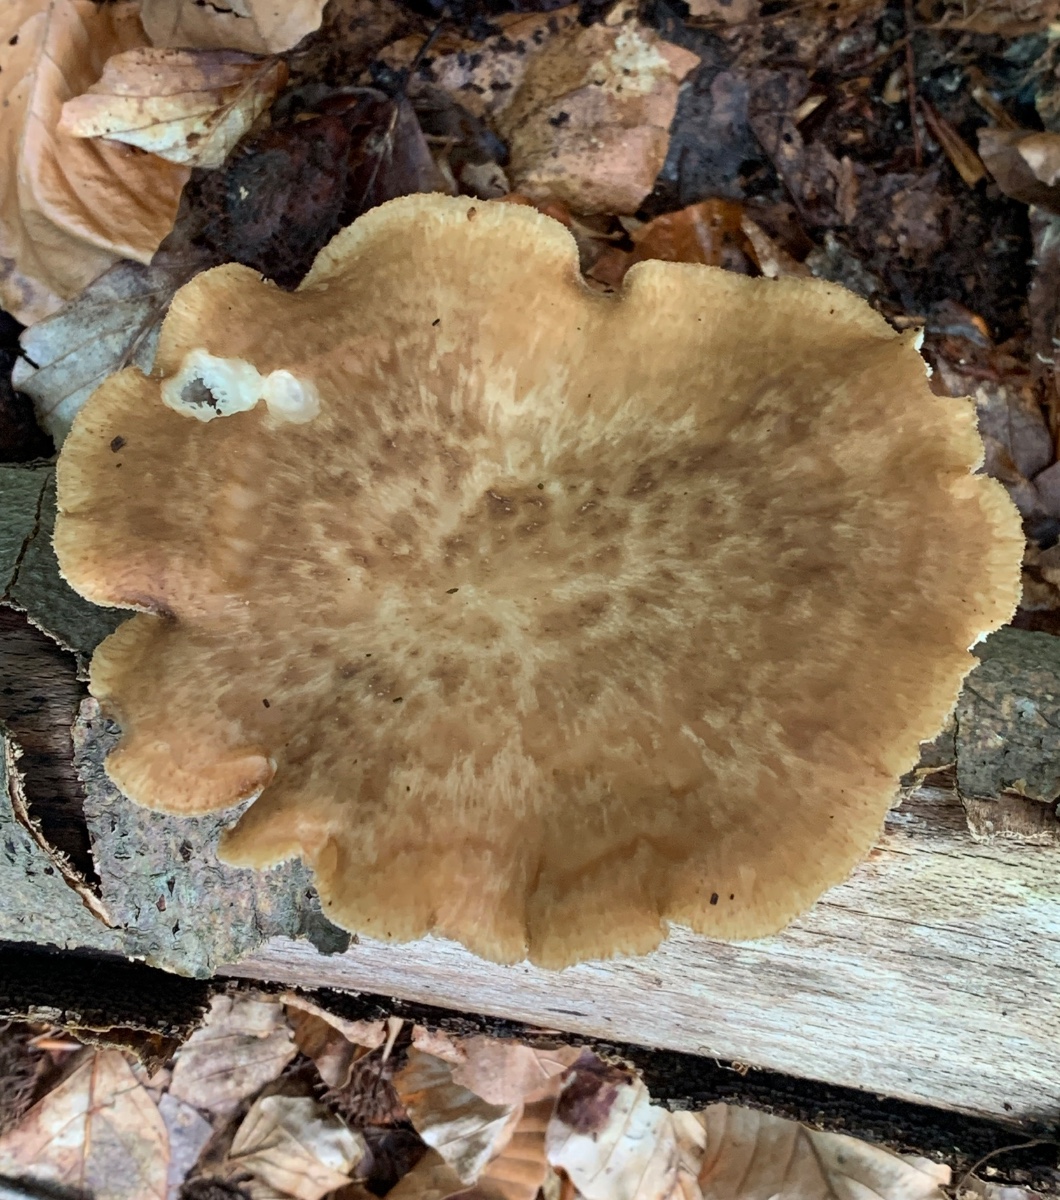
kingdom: Fungi
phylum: Basidiomycota
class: Agaricomycetes
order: Polyporales
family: Polyporaceae
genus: Polyporus
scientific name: Polyporus tuberaster
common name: knoldet stilkporesvamp
